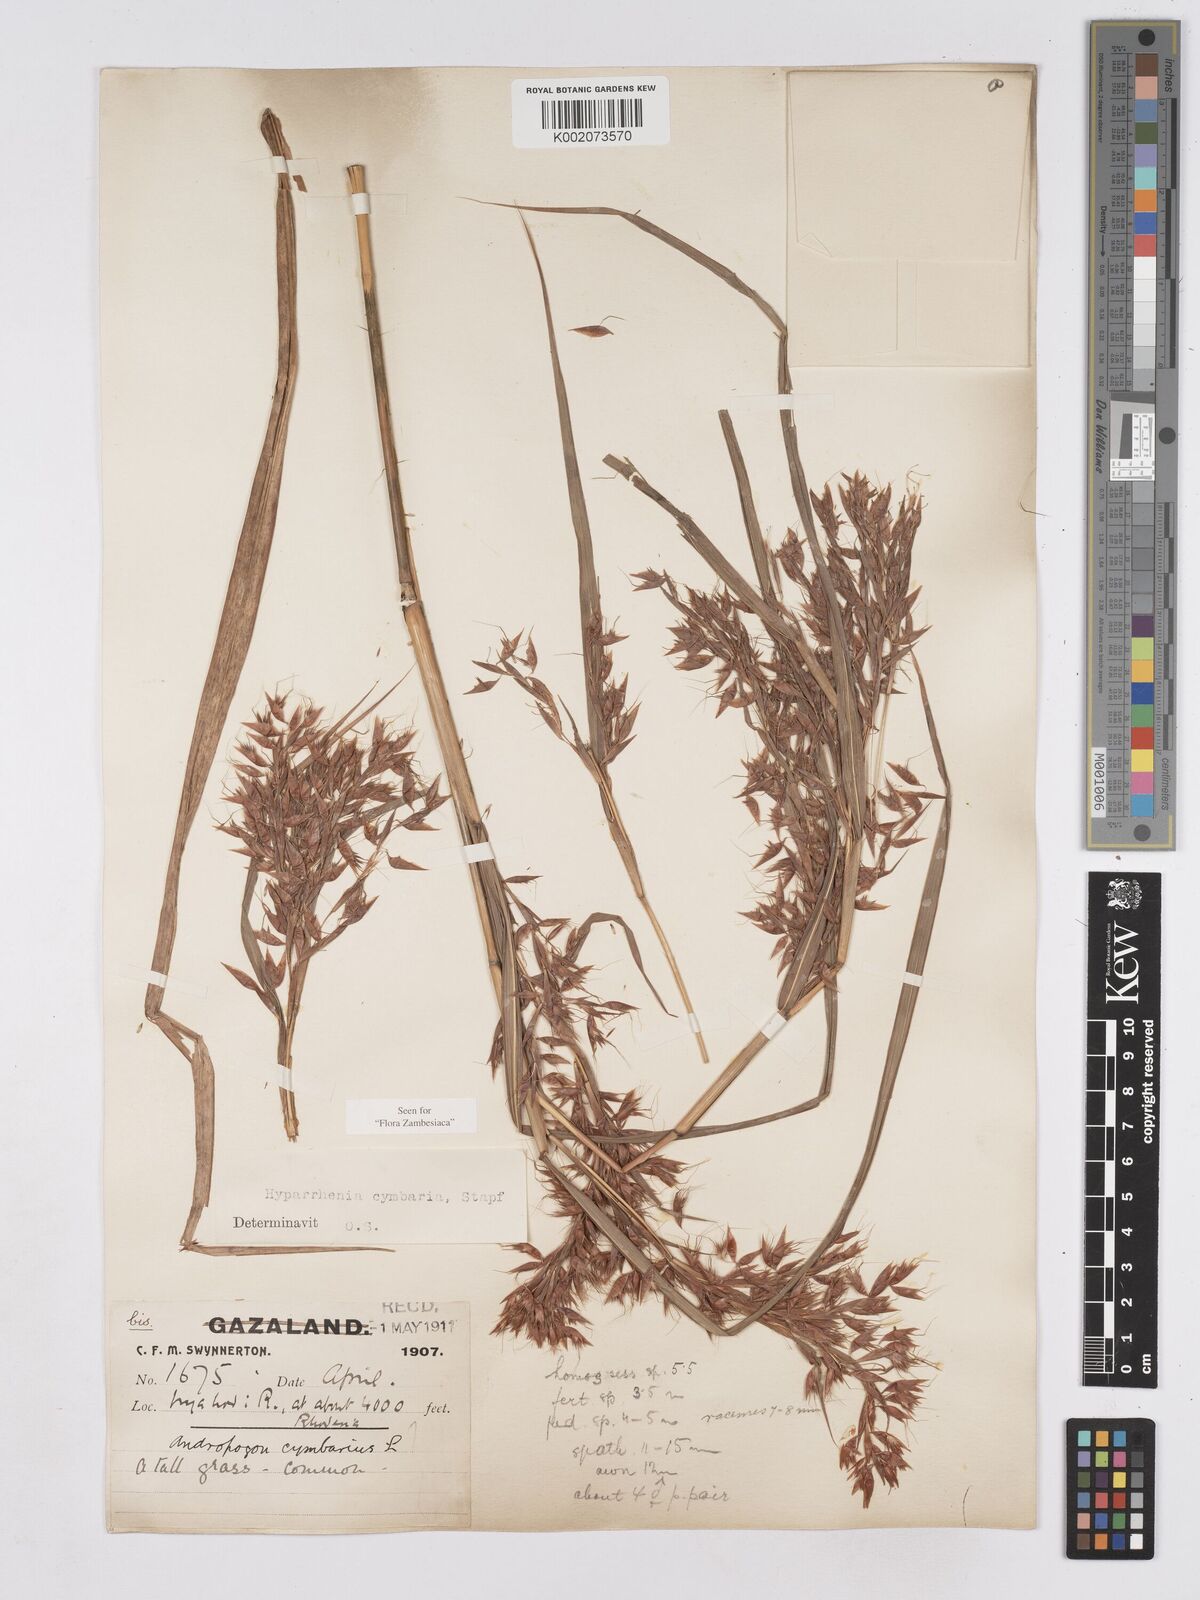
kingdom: Plantae
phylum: Tracheophyta
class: Liliopsida
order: Poales
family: Poaceae
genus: Hyparrhenia
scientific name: Hyparrhenia cymbaria
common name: Boat thatching grass
